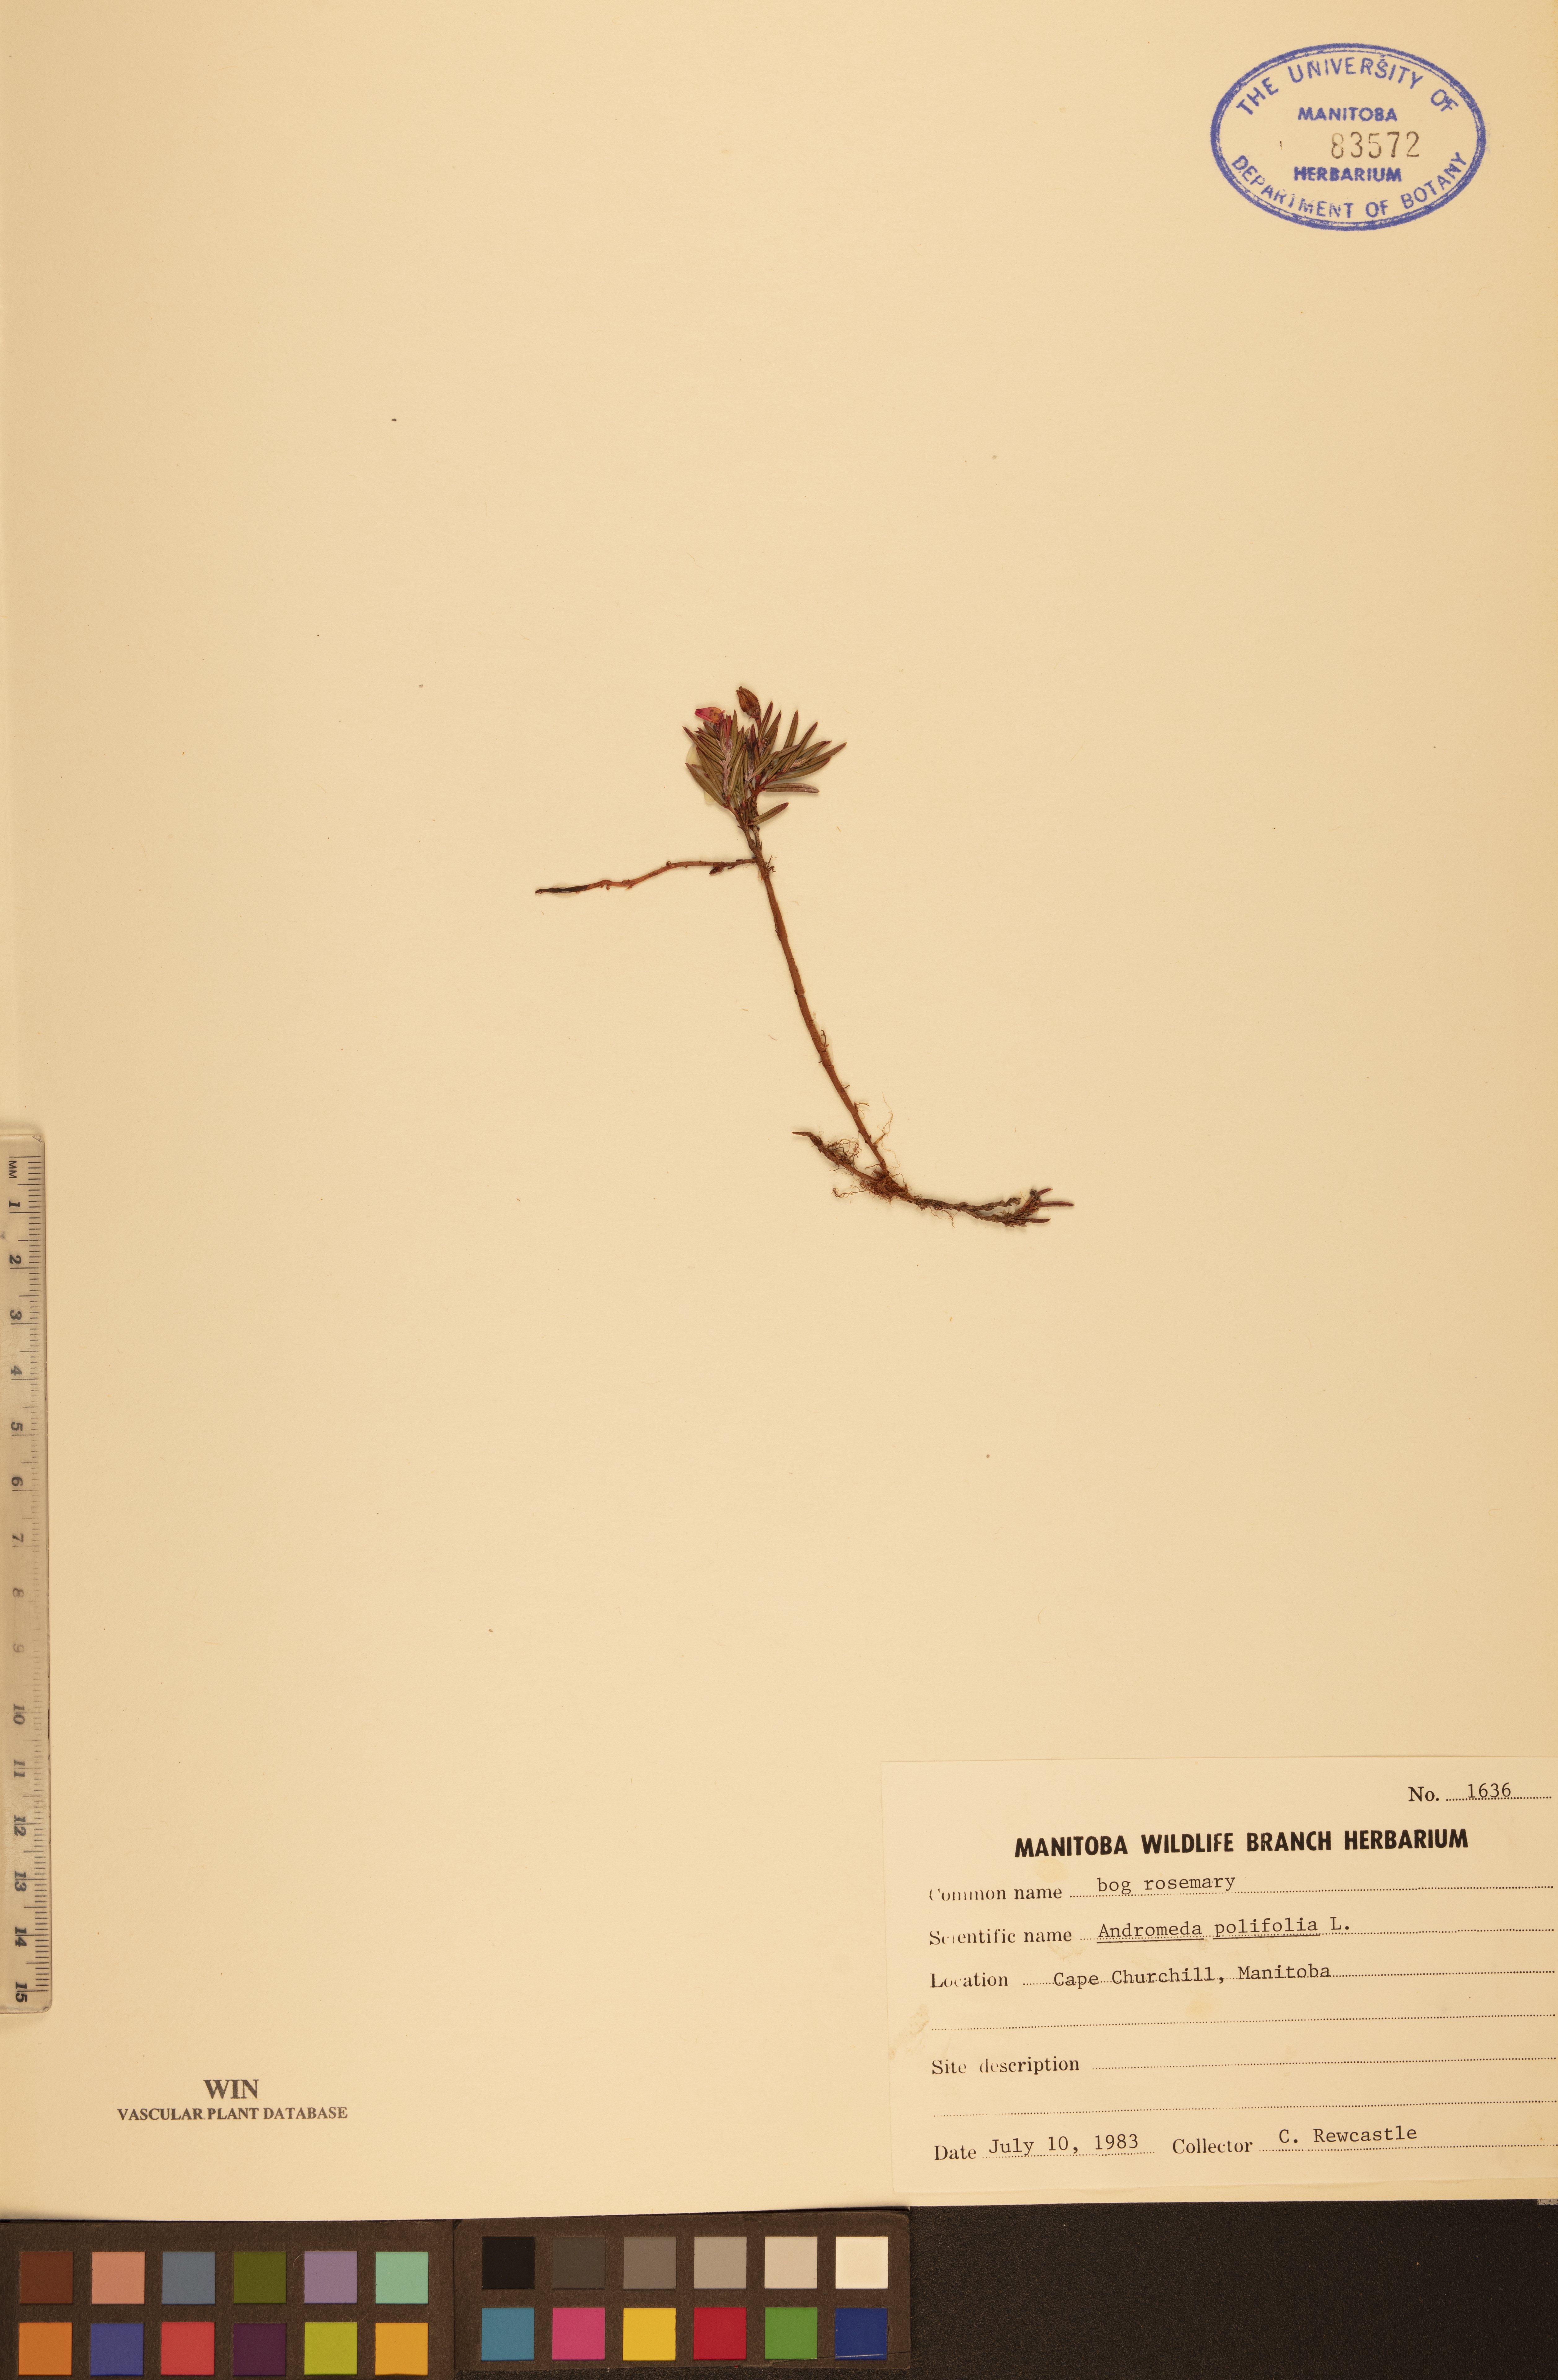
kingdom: Plantae
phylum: Tracheophyta
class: Magnoliopsida
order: Ericales
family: Ericaceae
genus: Andromeda
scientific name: Andromeda polifolia
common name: Bog-rosemary
